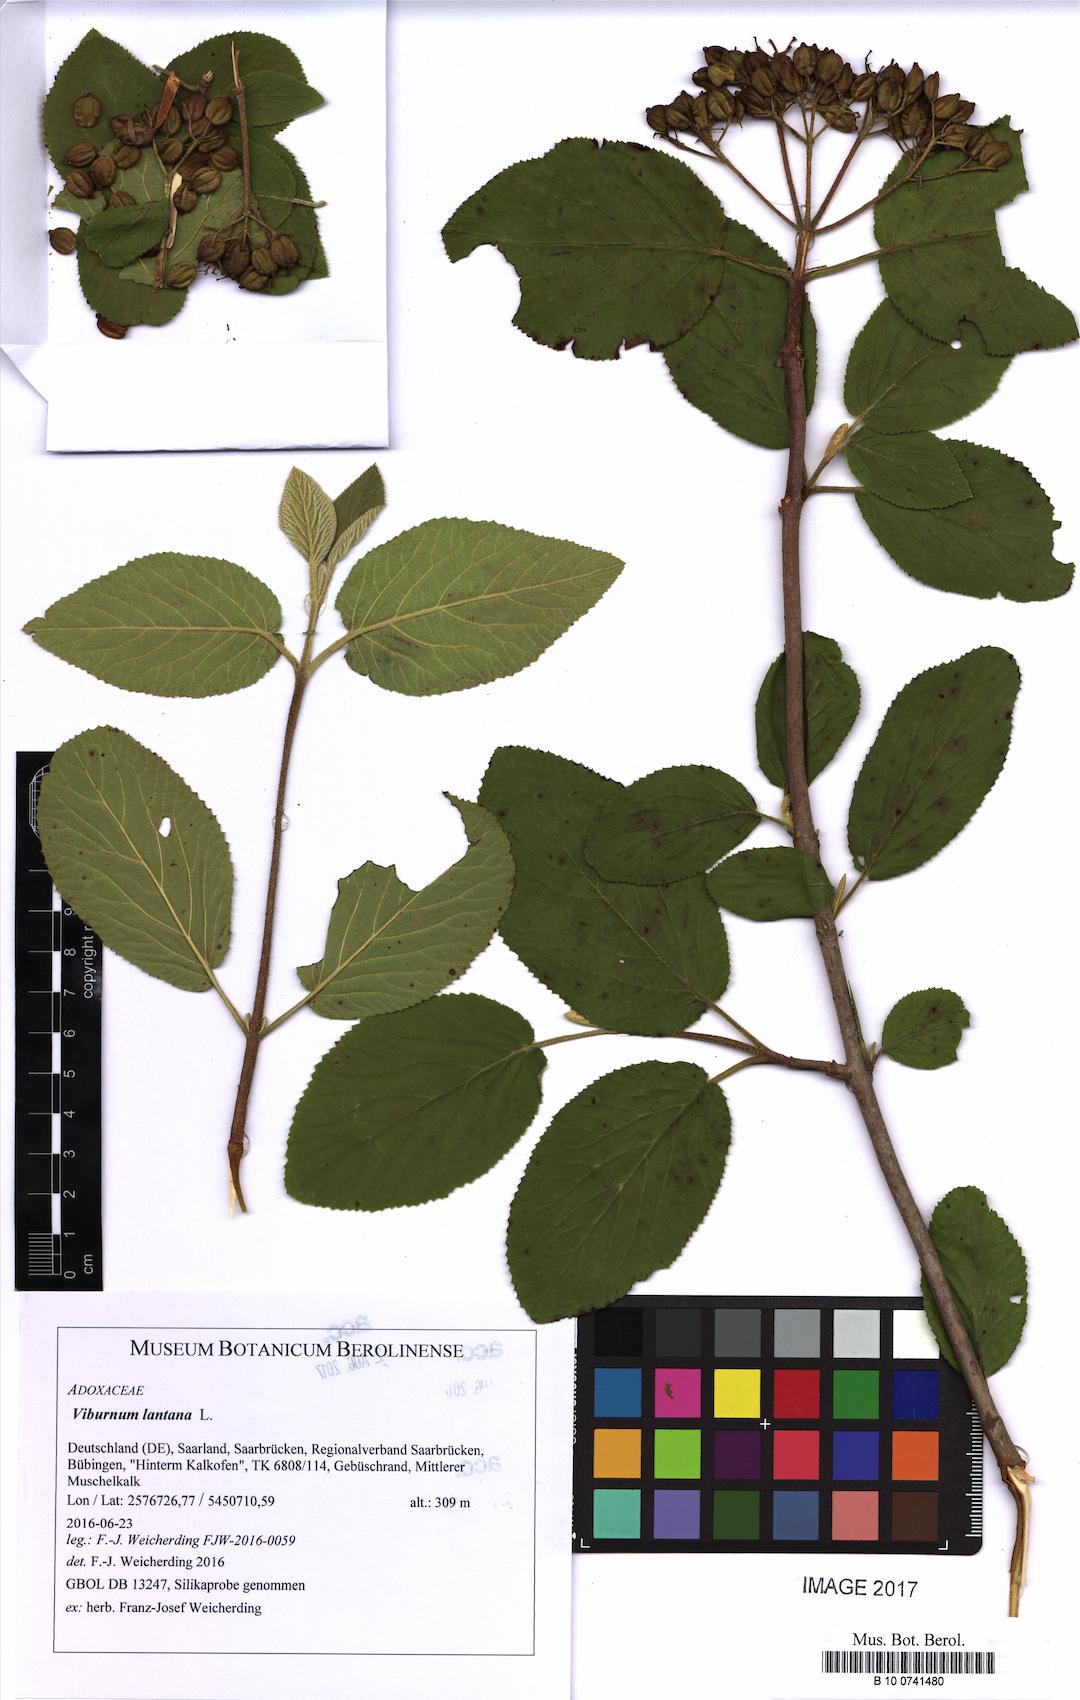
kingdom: Plantae
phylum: Tracheophyta
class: Magnoliopsida
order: Dipsacales
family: Viburnaceae
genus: Viburnum
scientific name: Viburnum lantana
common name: Wayfaring tree
